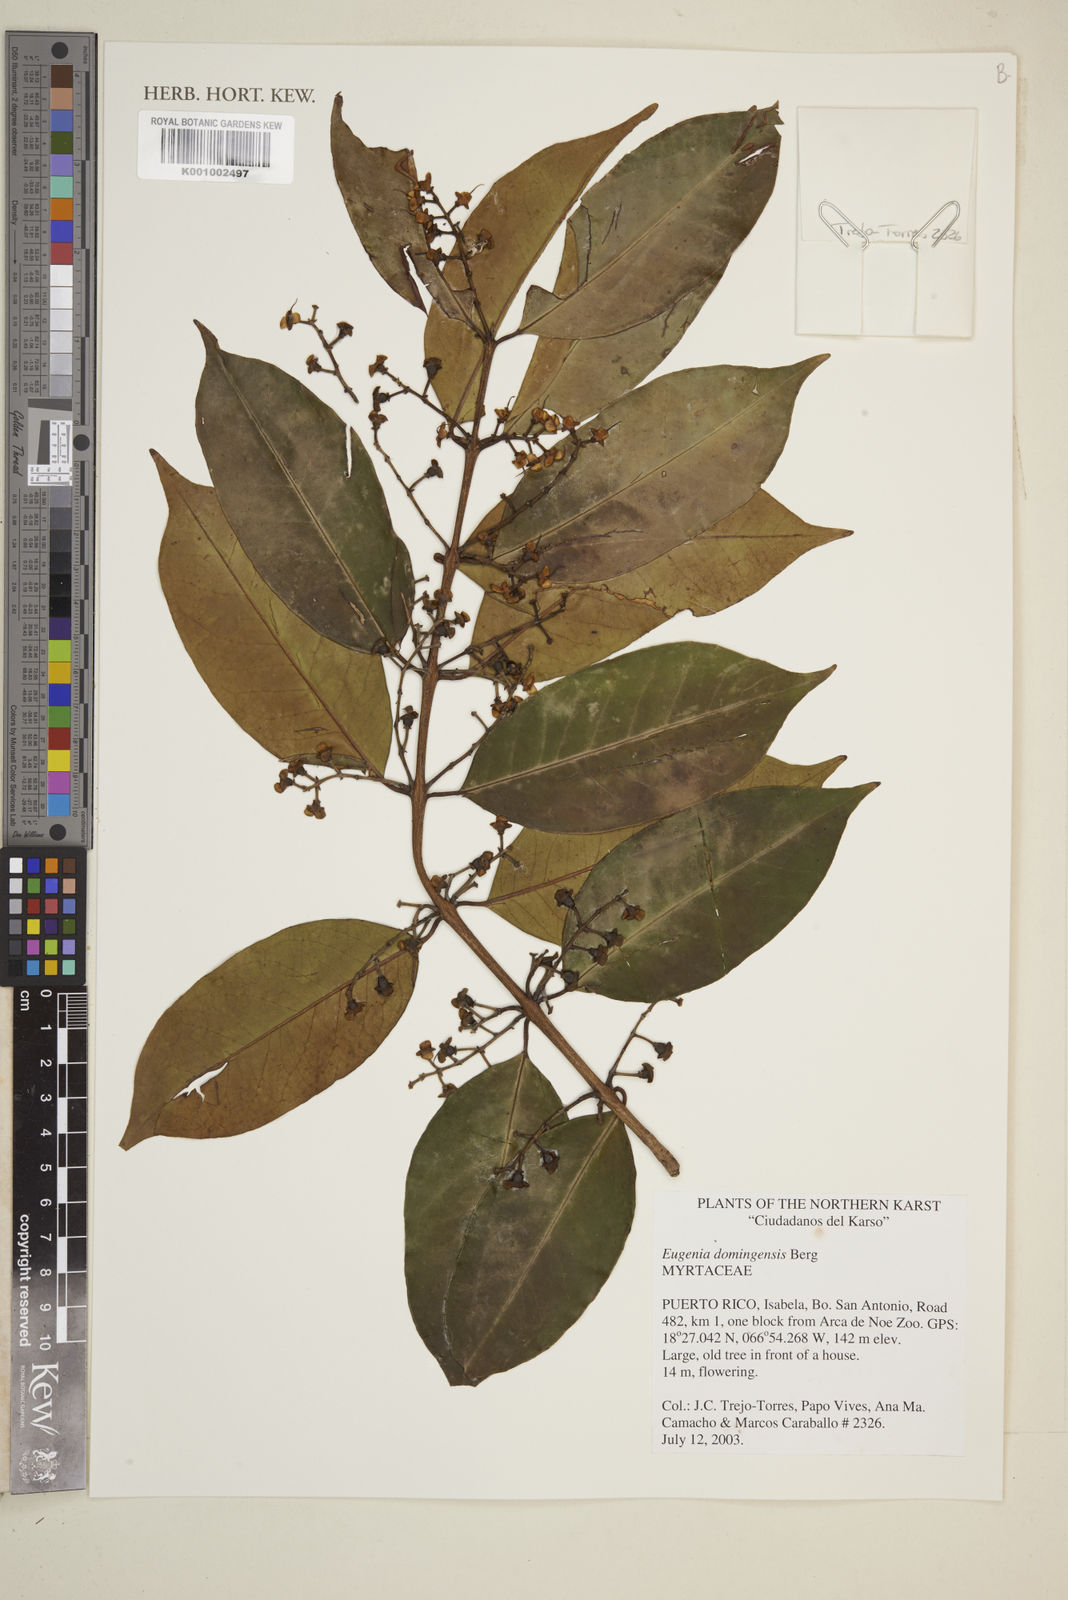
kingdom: Plantae
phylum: Tracheophyta
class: Magnoliopsida
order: Myrtales
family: Myrtaceae
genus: Eugenia
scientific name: Eugenia domingensis
